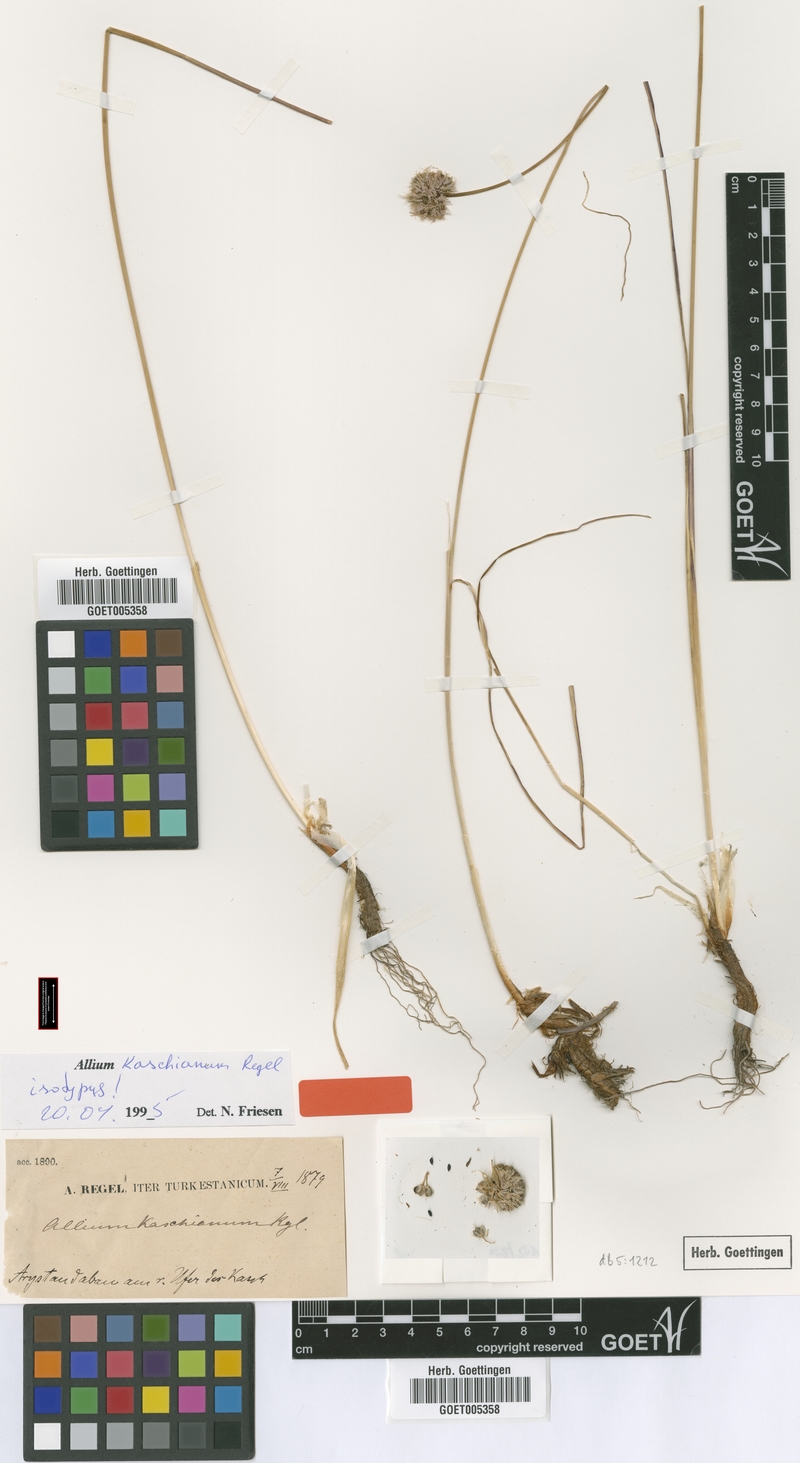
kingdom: Plantae
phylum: Tracheophyta
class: Liliopsida
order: Asparagales
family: Amaryllidaceae
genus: Allium
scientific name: Allium kaschianum
